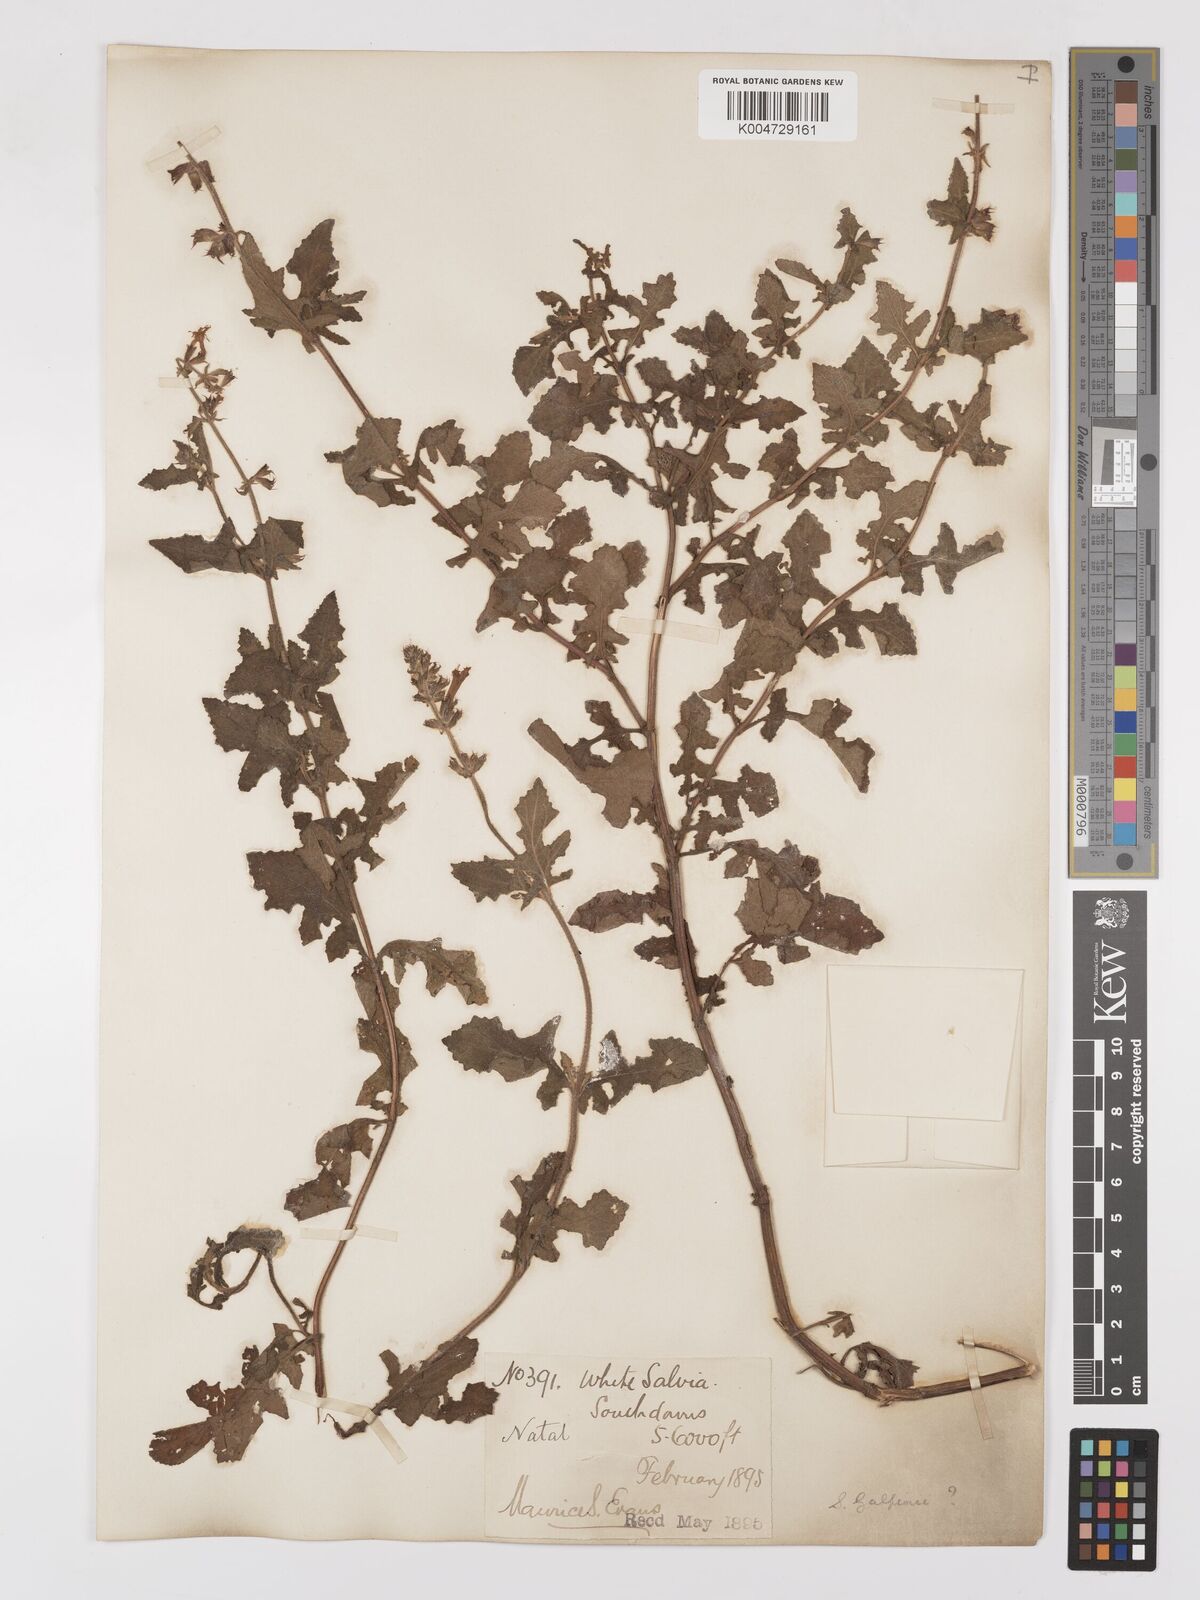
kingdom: Plantae
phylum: Tracheophyta
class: Magnoliopsida
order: Lamiales
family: Lamiaceae
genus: Salvia
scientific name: Salvia aurita
